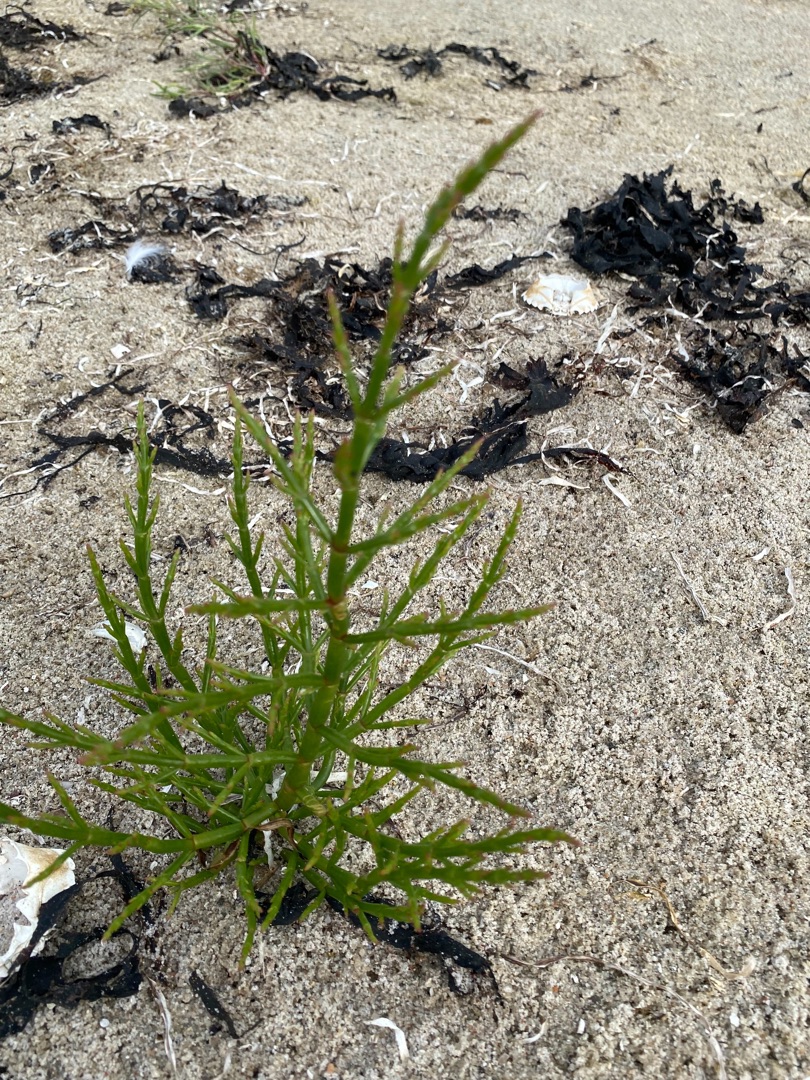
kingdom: Plantae
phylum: Tracheophyta
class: Magnoliopsida
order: Caryophyllales
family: Amaranthaceae
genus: Salicornia
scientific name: Salicornia europaea
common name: Almindelig salturt
